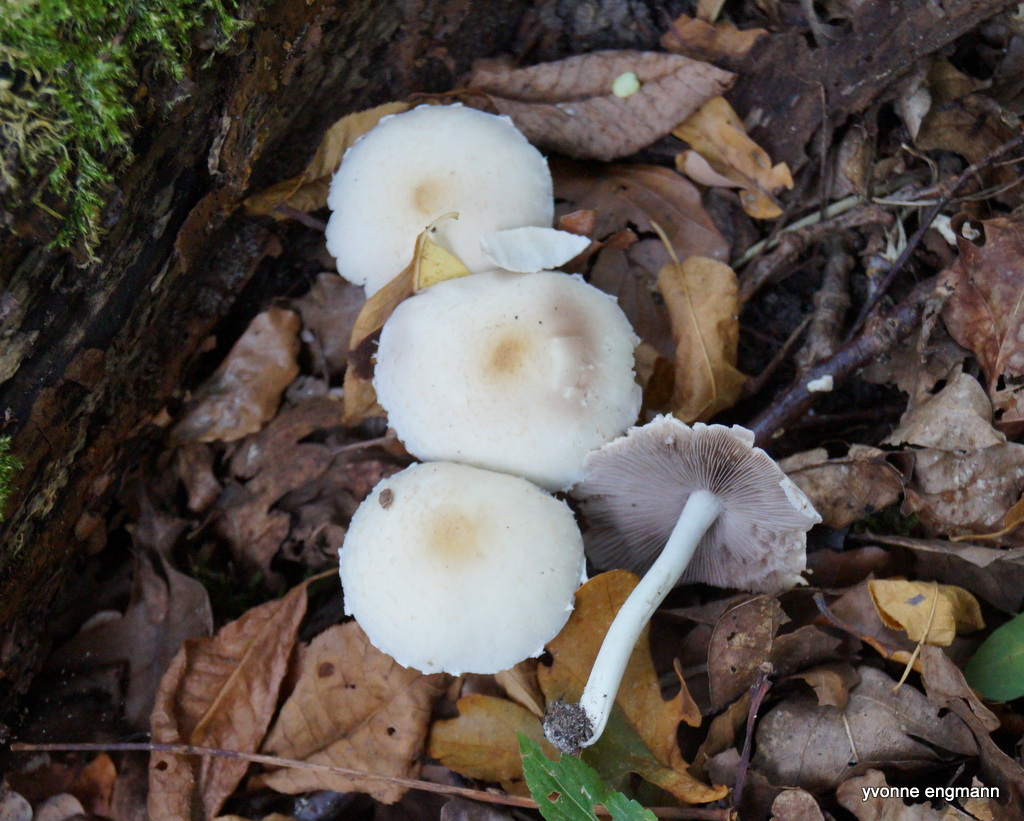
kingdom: Fungi
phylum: Basidiomycota
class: Agaricomycetes
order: Agaricales
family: Psathyrellaceae
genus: Candolleomyces
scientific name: Candolleomyces candolleanus
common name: Candolles mørkhat
